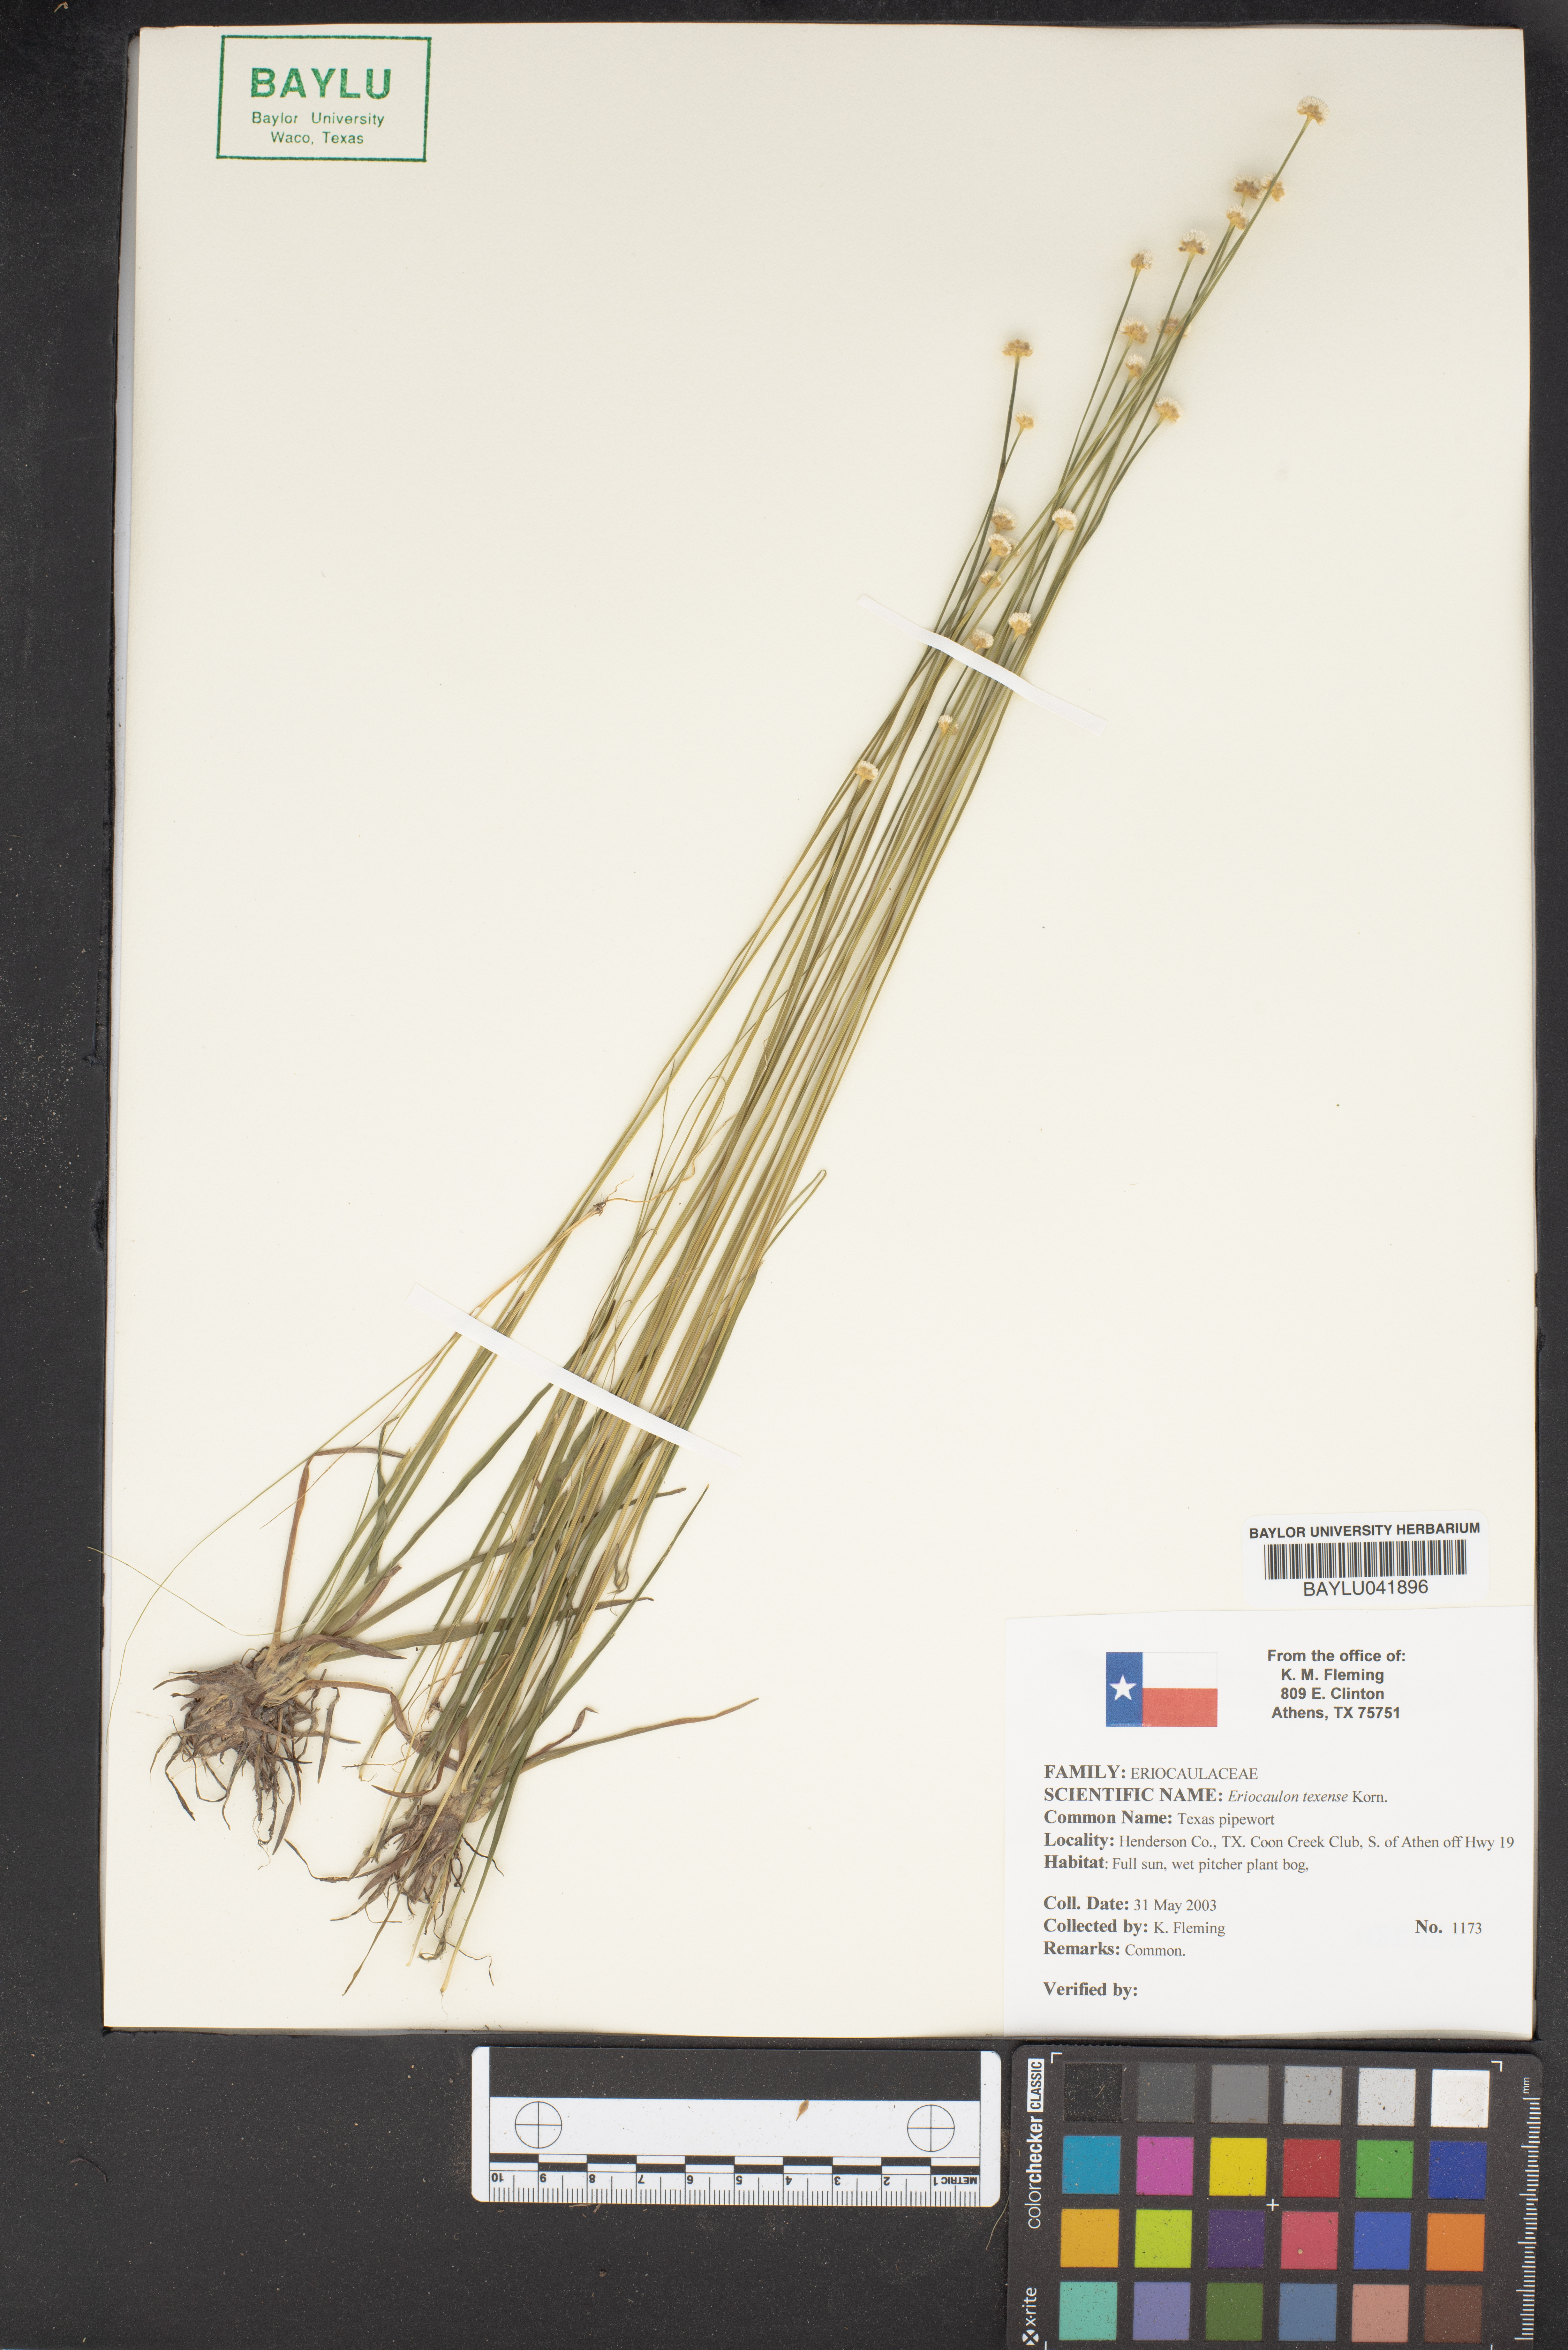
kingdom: Plantae
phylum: Tracheophyta
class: Liliopsida
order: Poales
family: Eriocaulaceae
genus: Eriocaulon
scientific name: Eriocaulon texense
